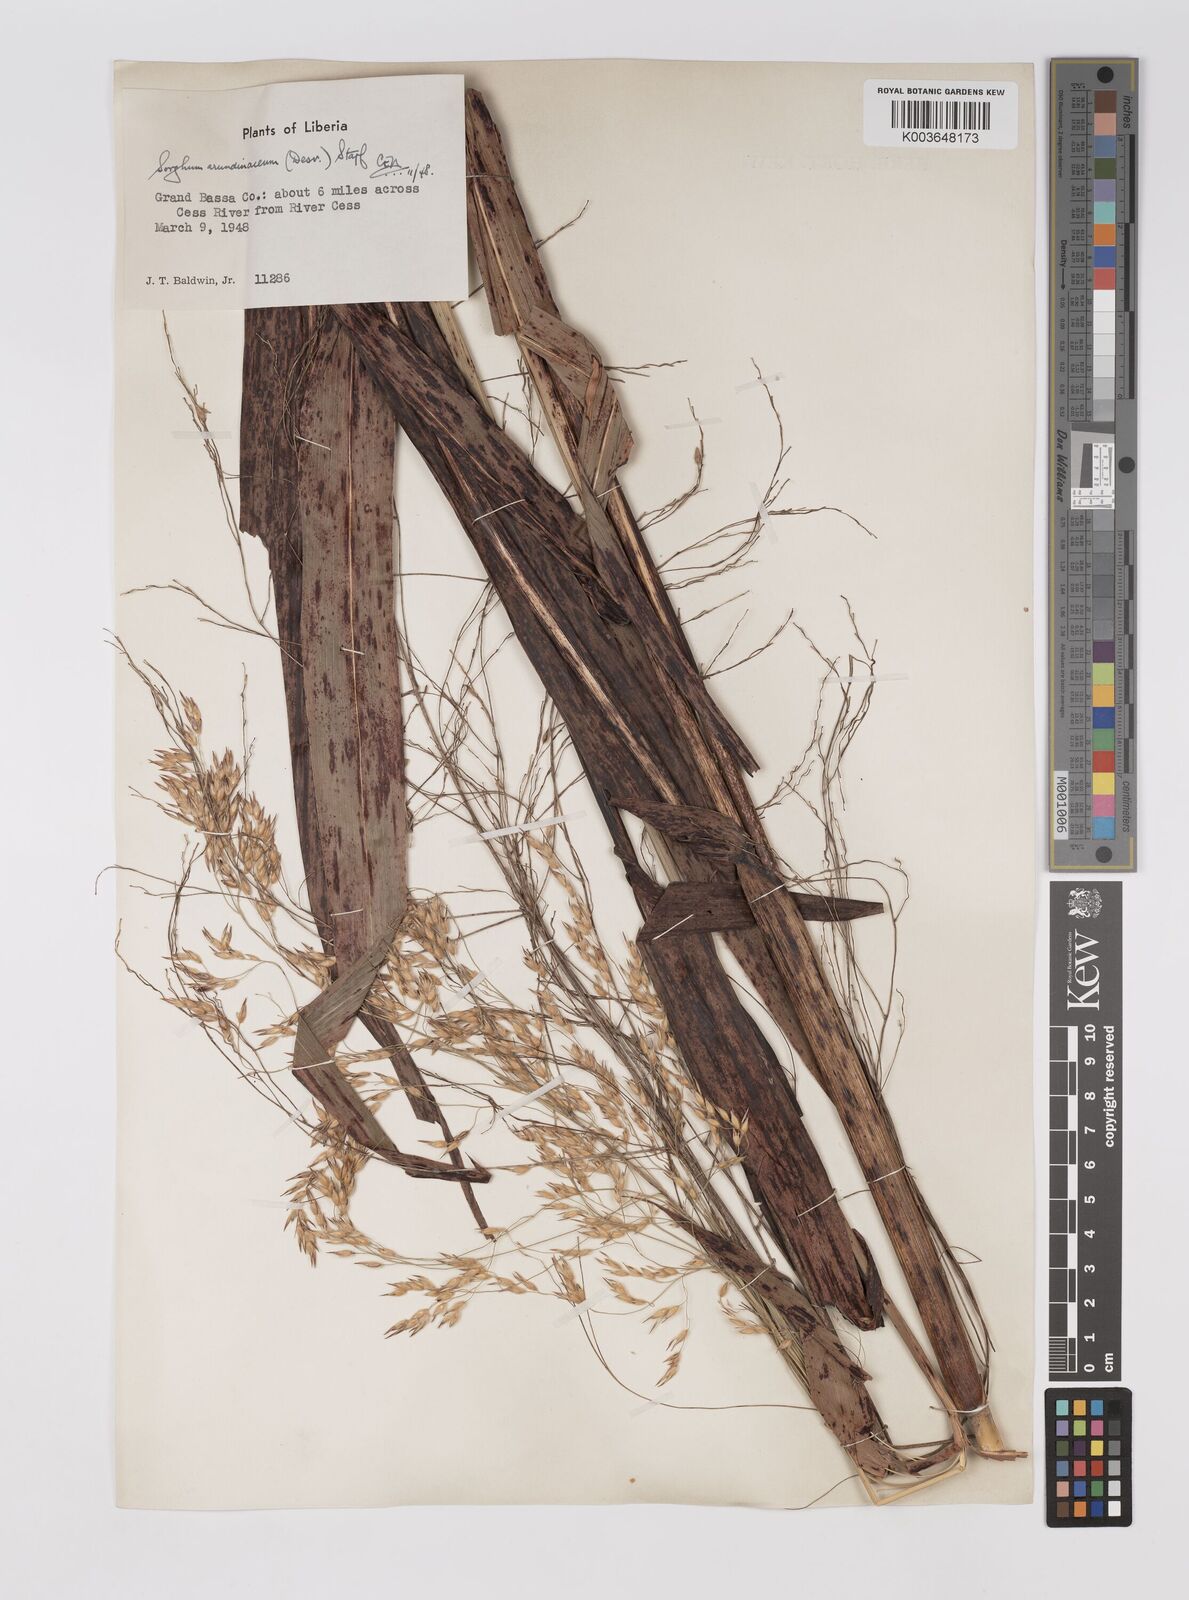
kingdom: Plantae
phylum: Tracheophyta
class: Liliopsida
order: Poales
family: Poaceae
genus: Sorghum
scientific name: Sorghum arundinaceum
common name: Sorghum
